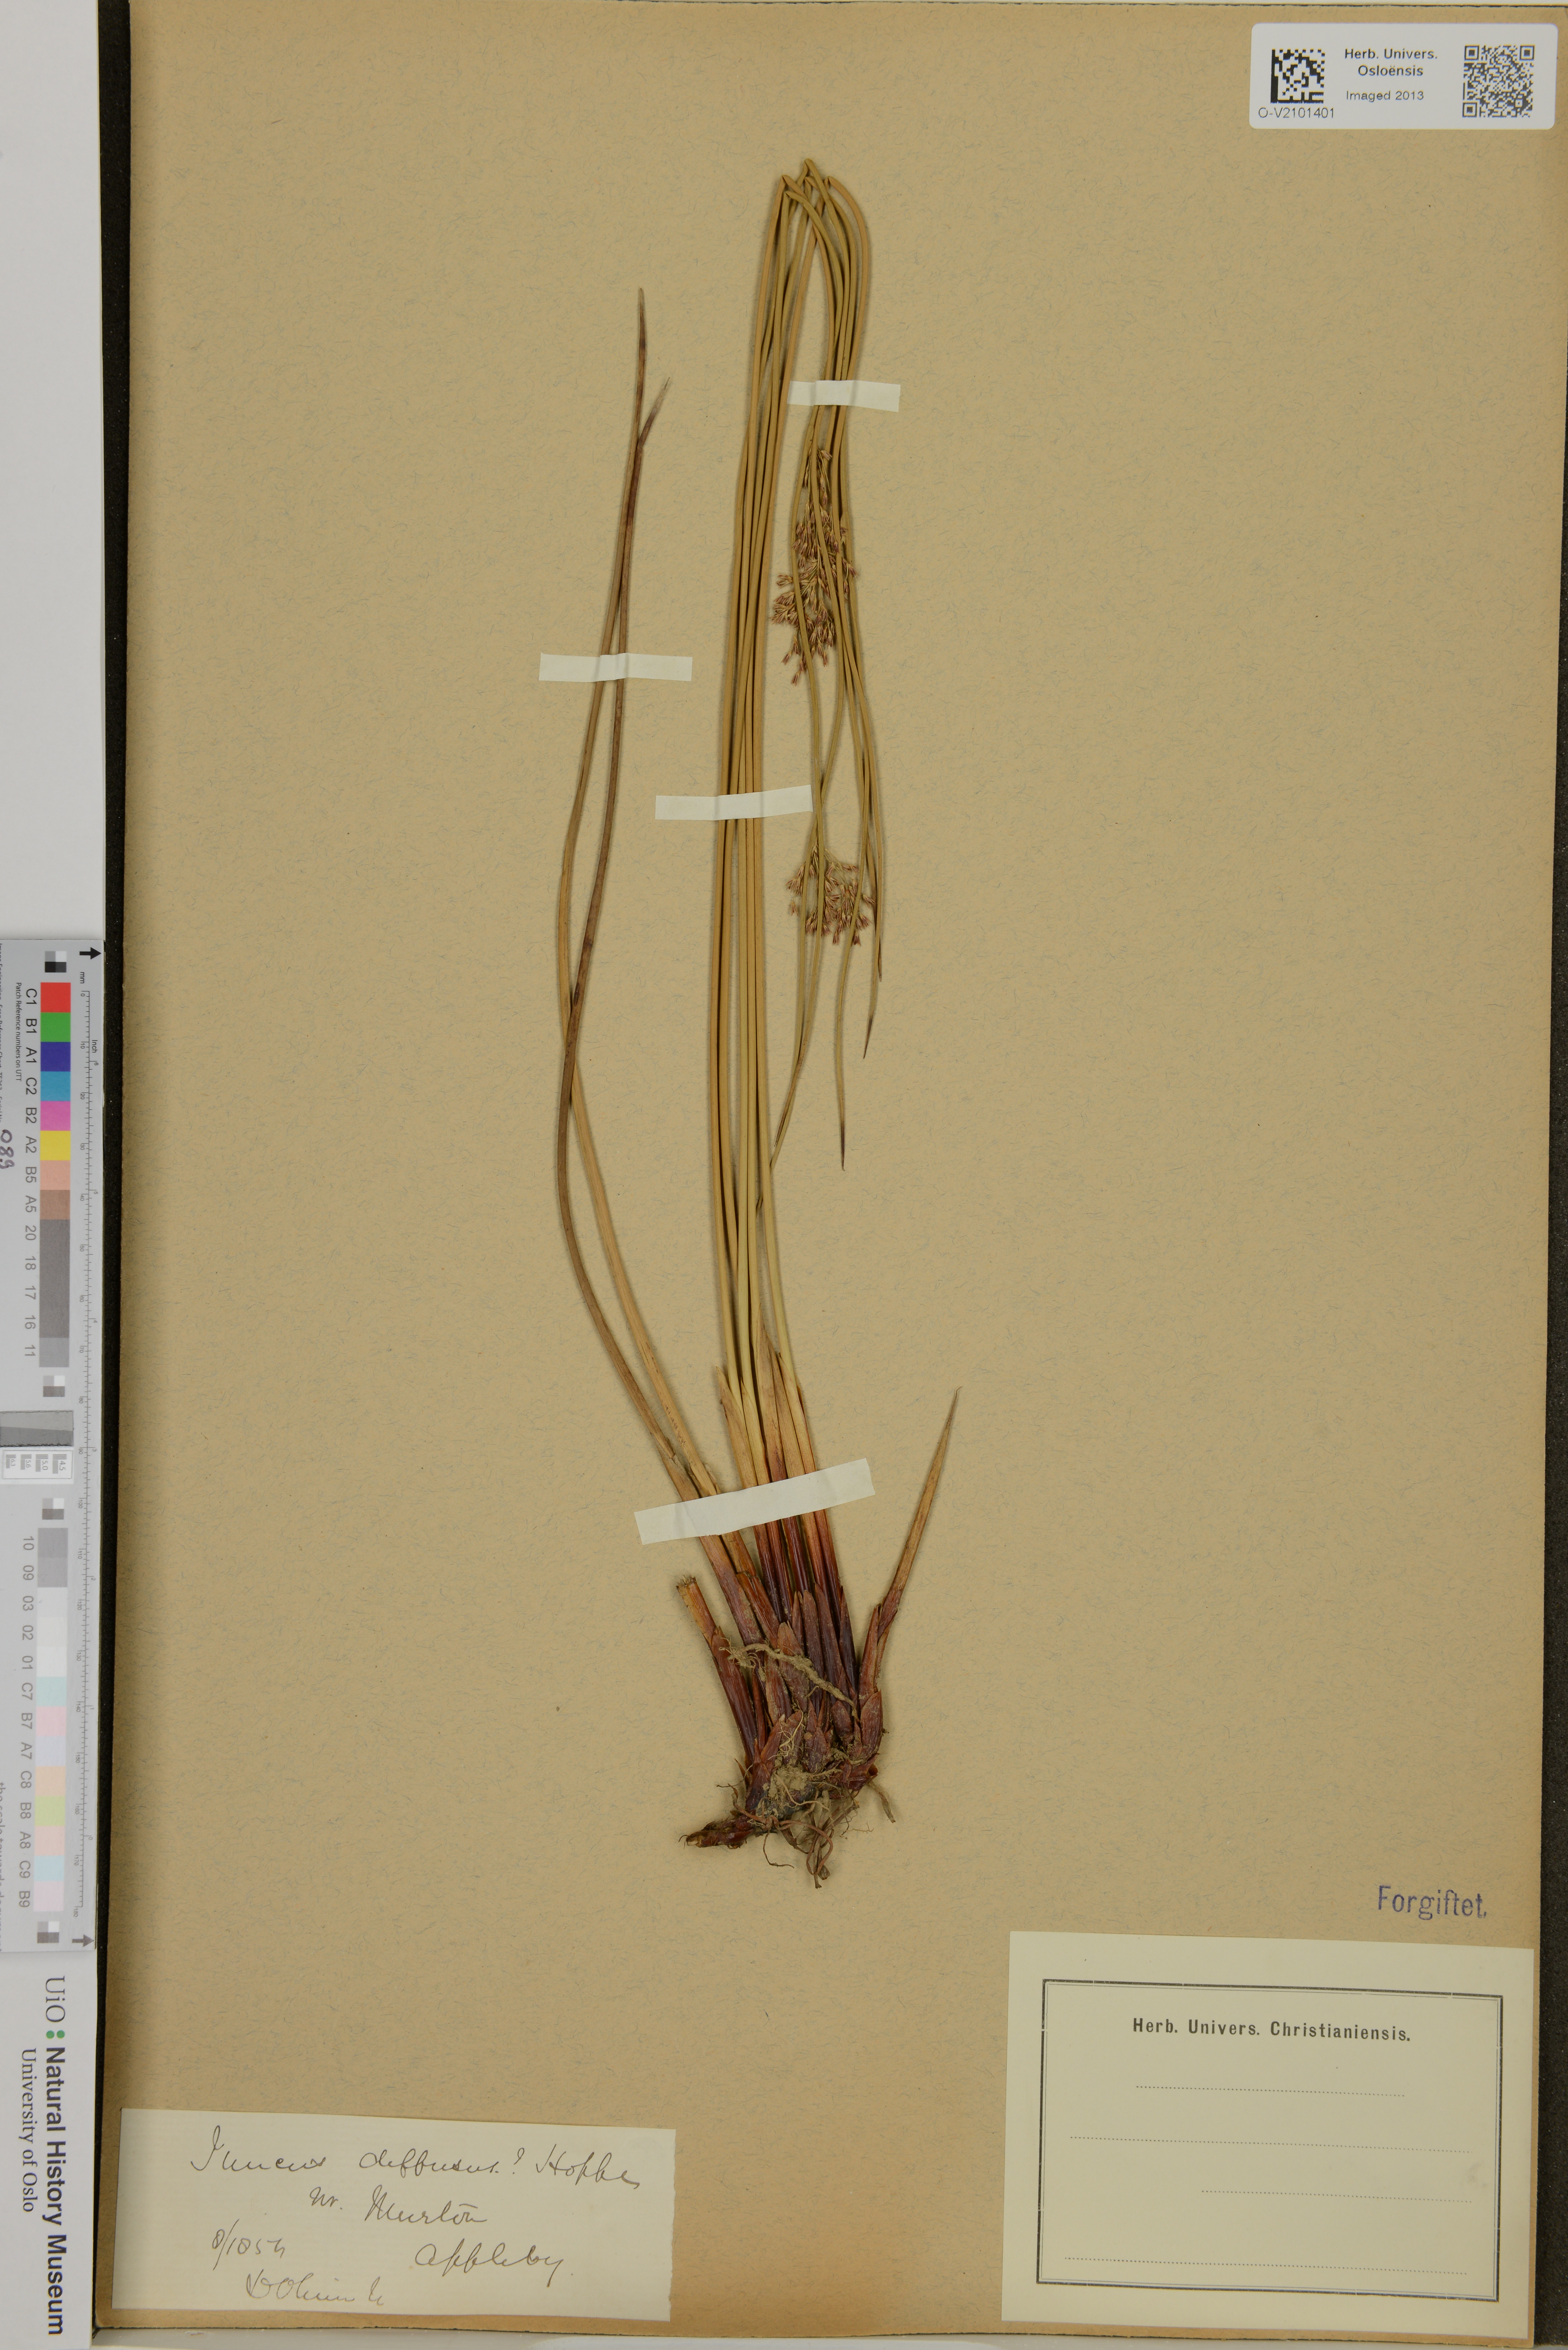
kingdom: Plantae
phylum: Tracheophyta
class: Liliopsida
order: Poales
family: Juncaceae
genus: Juncus
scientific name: Juncus diffusus
